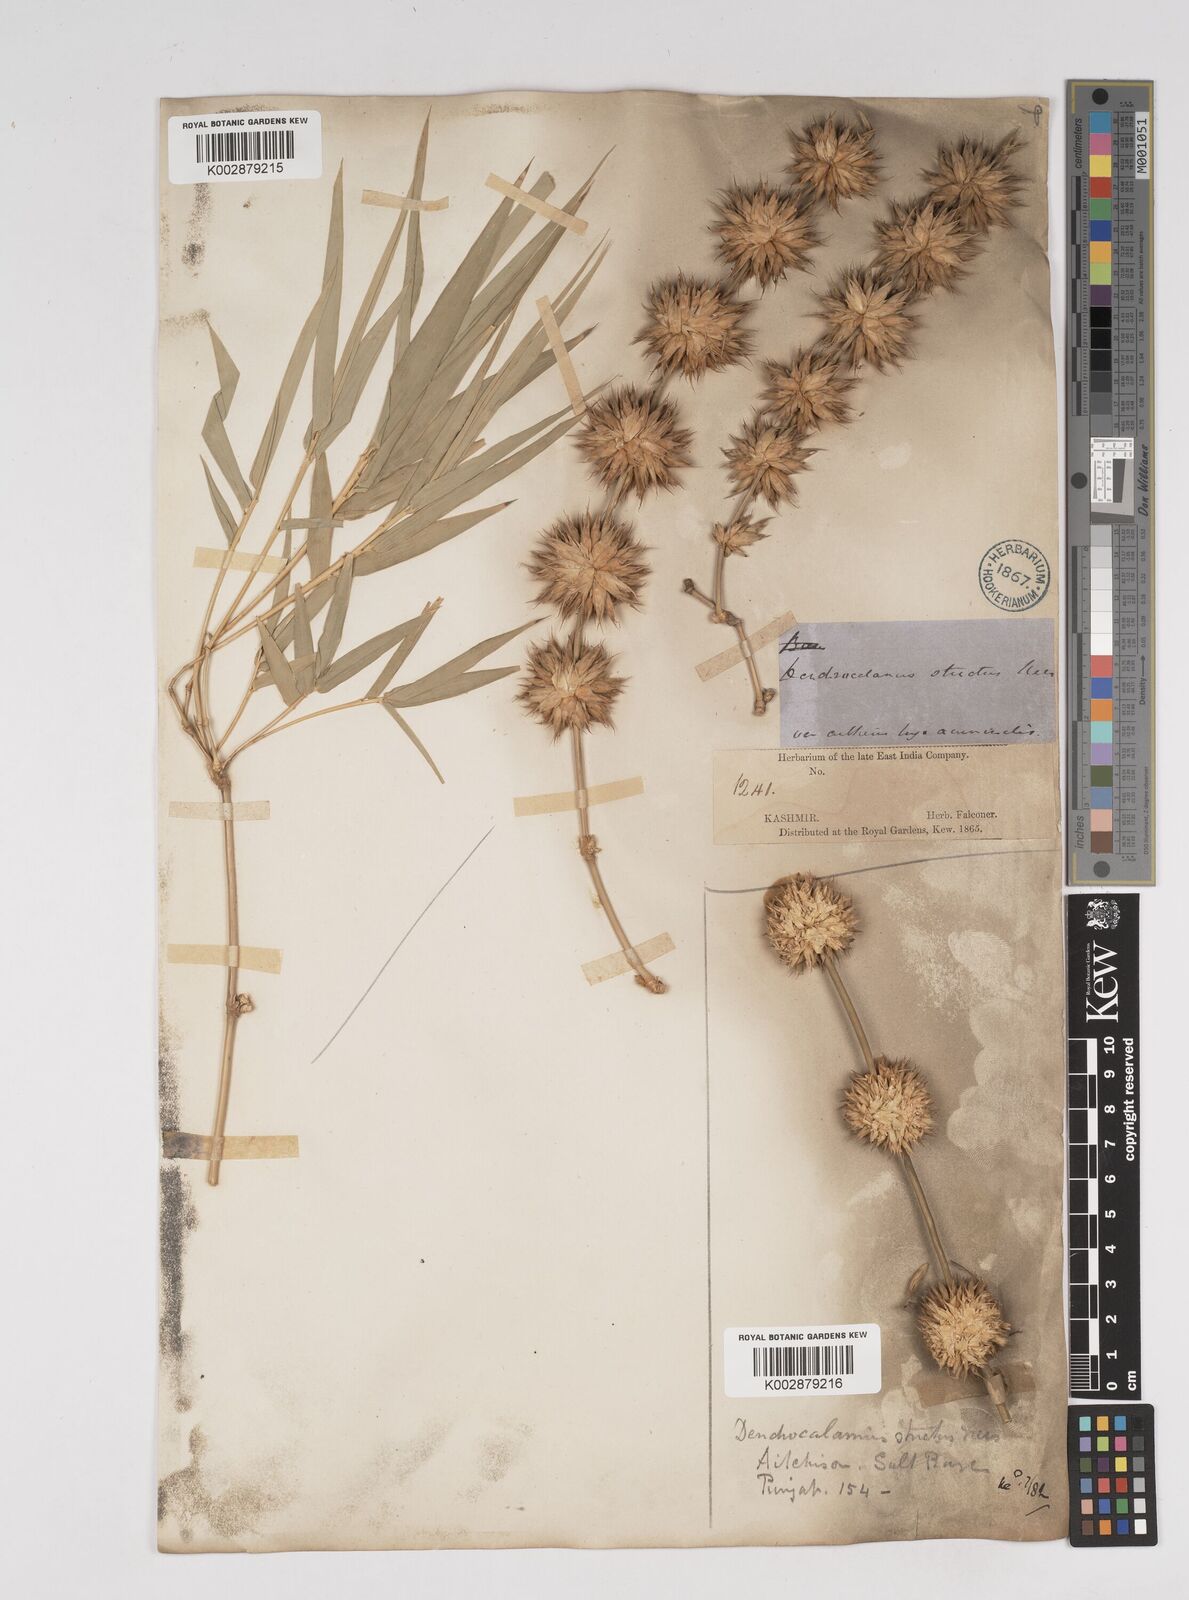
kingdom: Plantae
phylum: Tracheophyta
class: Liliopsida
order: Poales
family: Poaceae
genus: Dendrocalamus
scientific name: Dendrocalamus strictus
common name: Male bamboo
